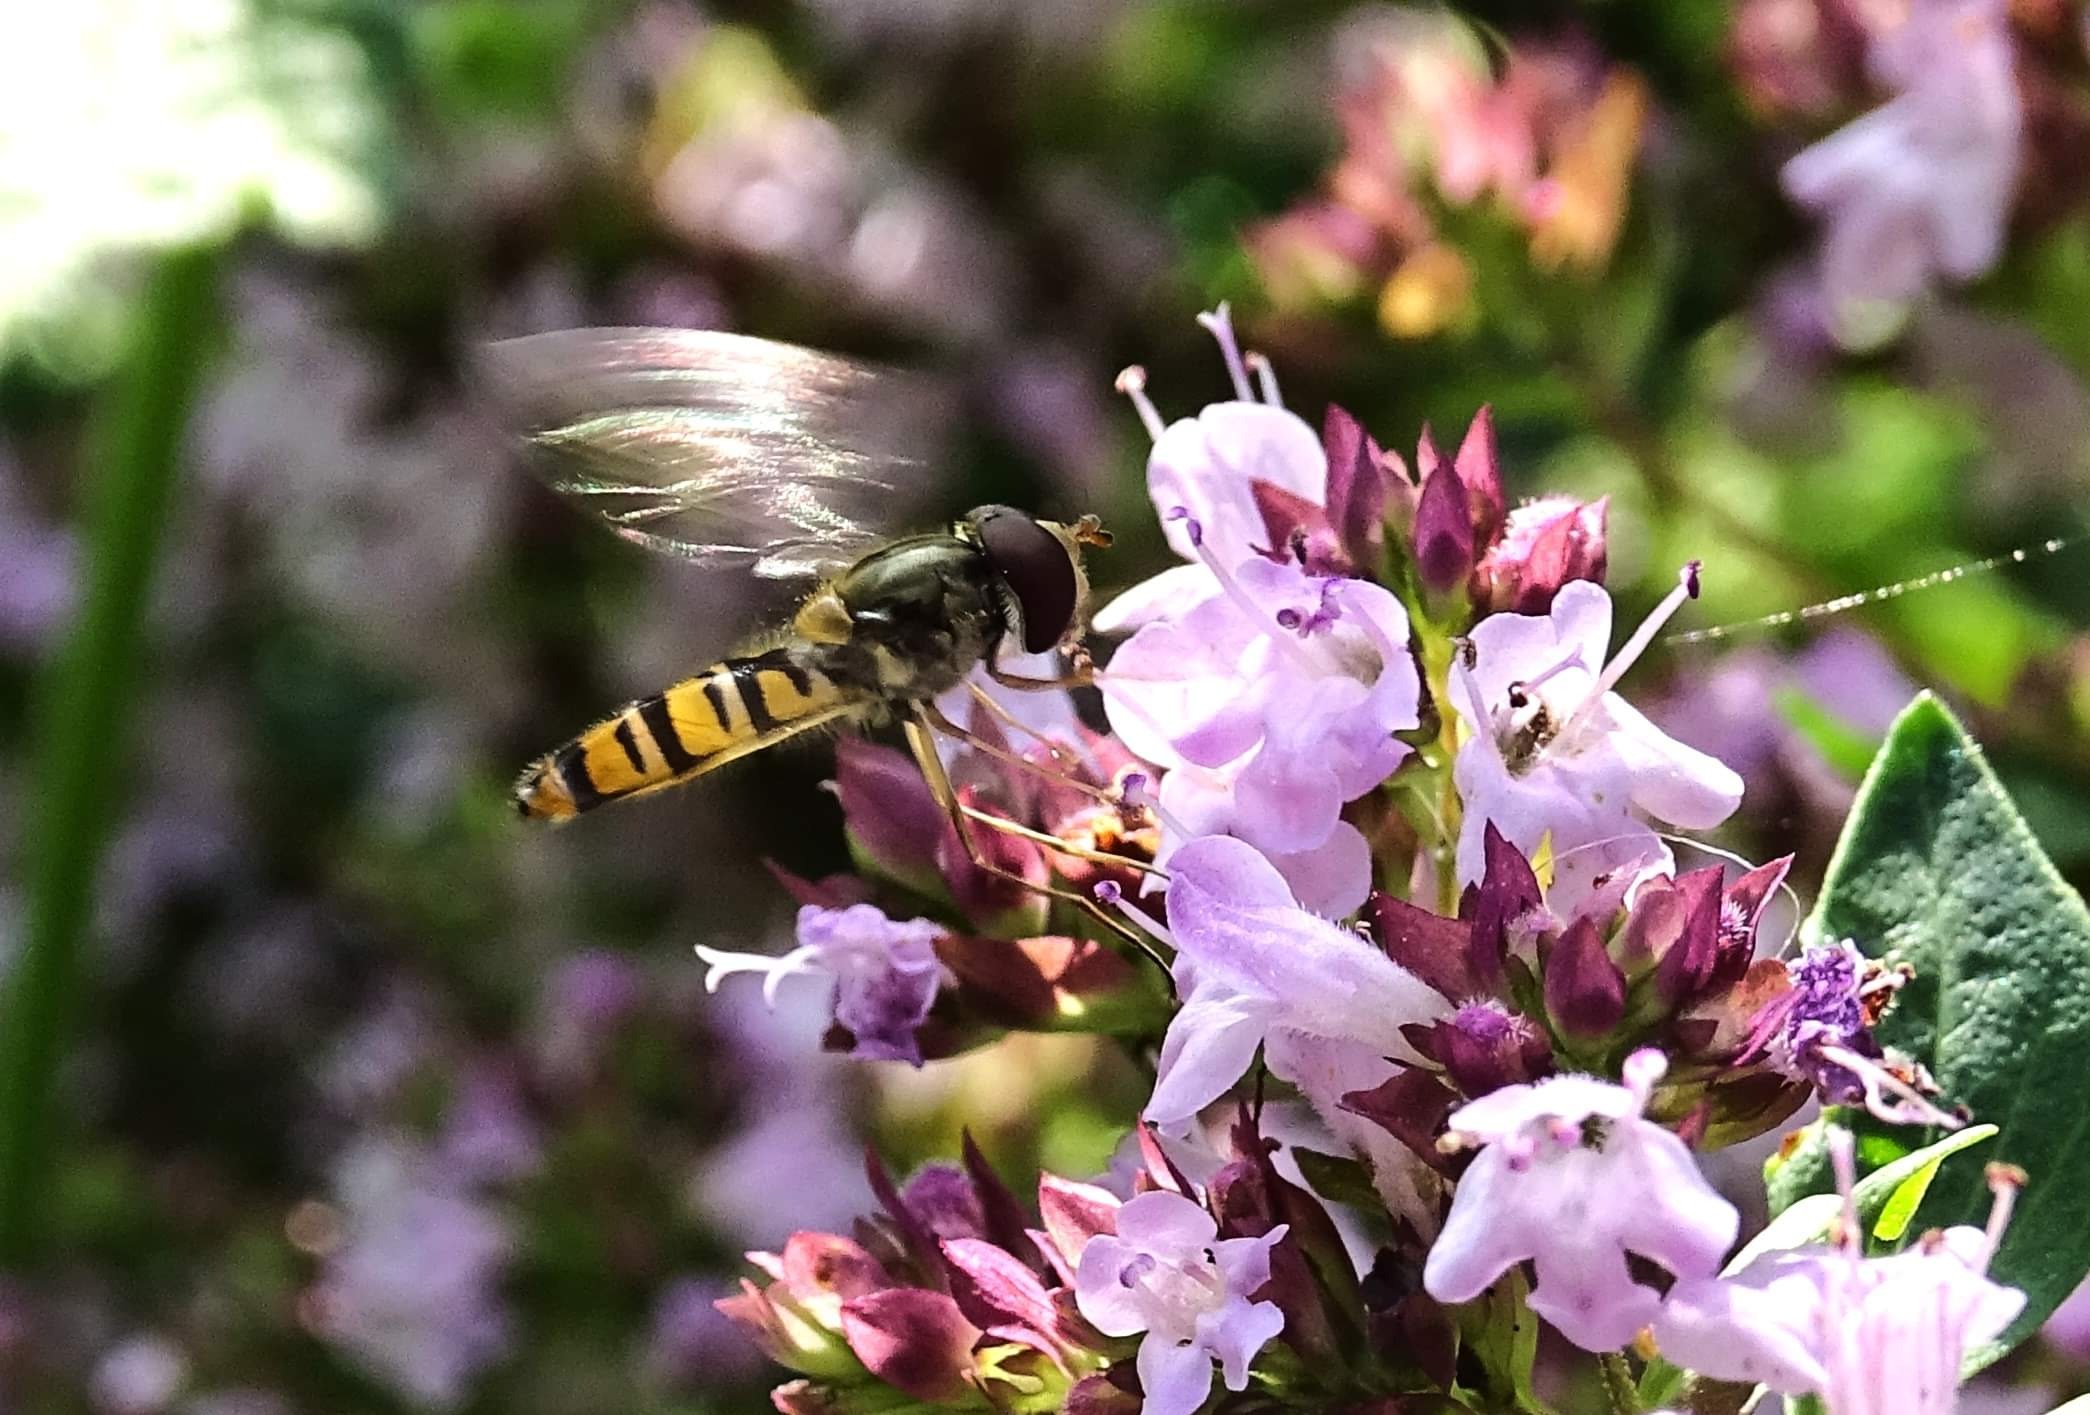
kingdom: Animalia
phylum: Arthropoda
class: Insecta
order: Diptera
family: Syrphidae
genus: Episyrphus
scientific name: Episyrphus balteatus
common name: Dobbeltbåndet svirreflue
